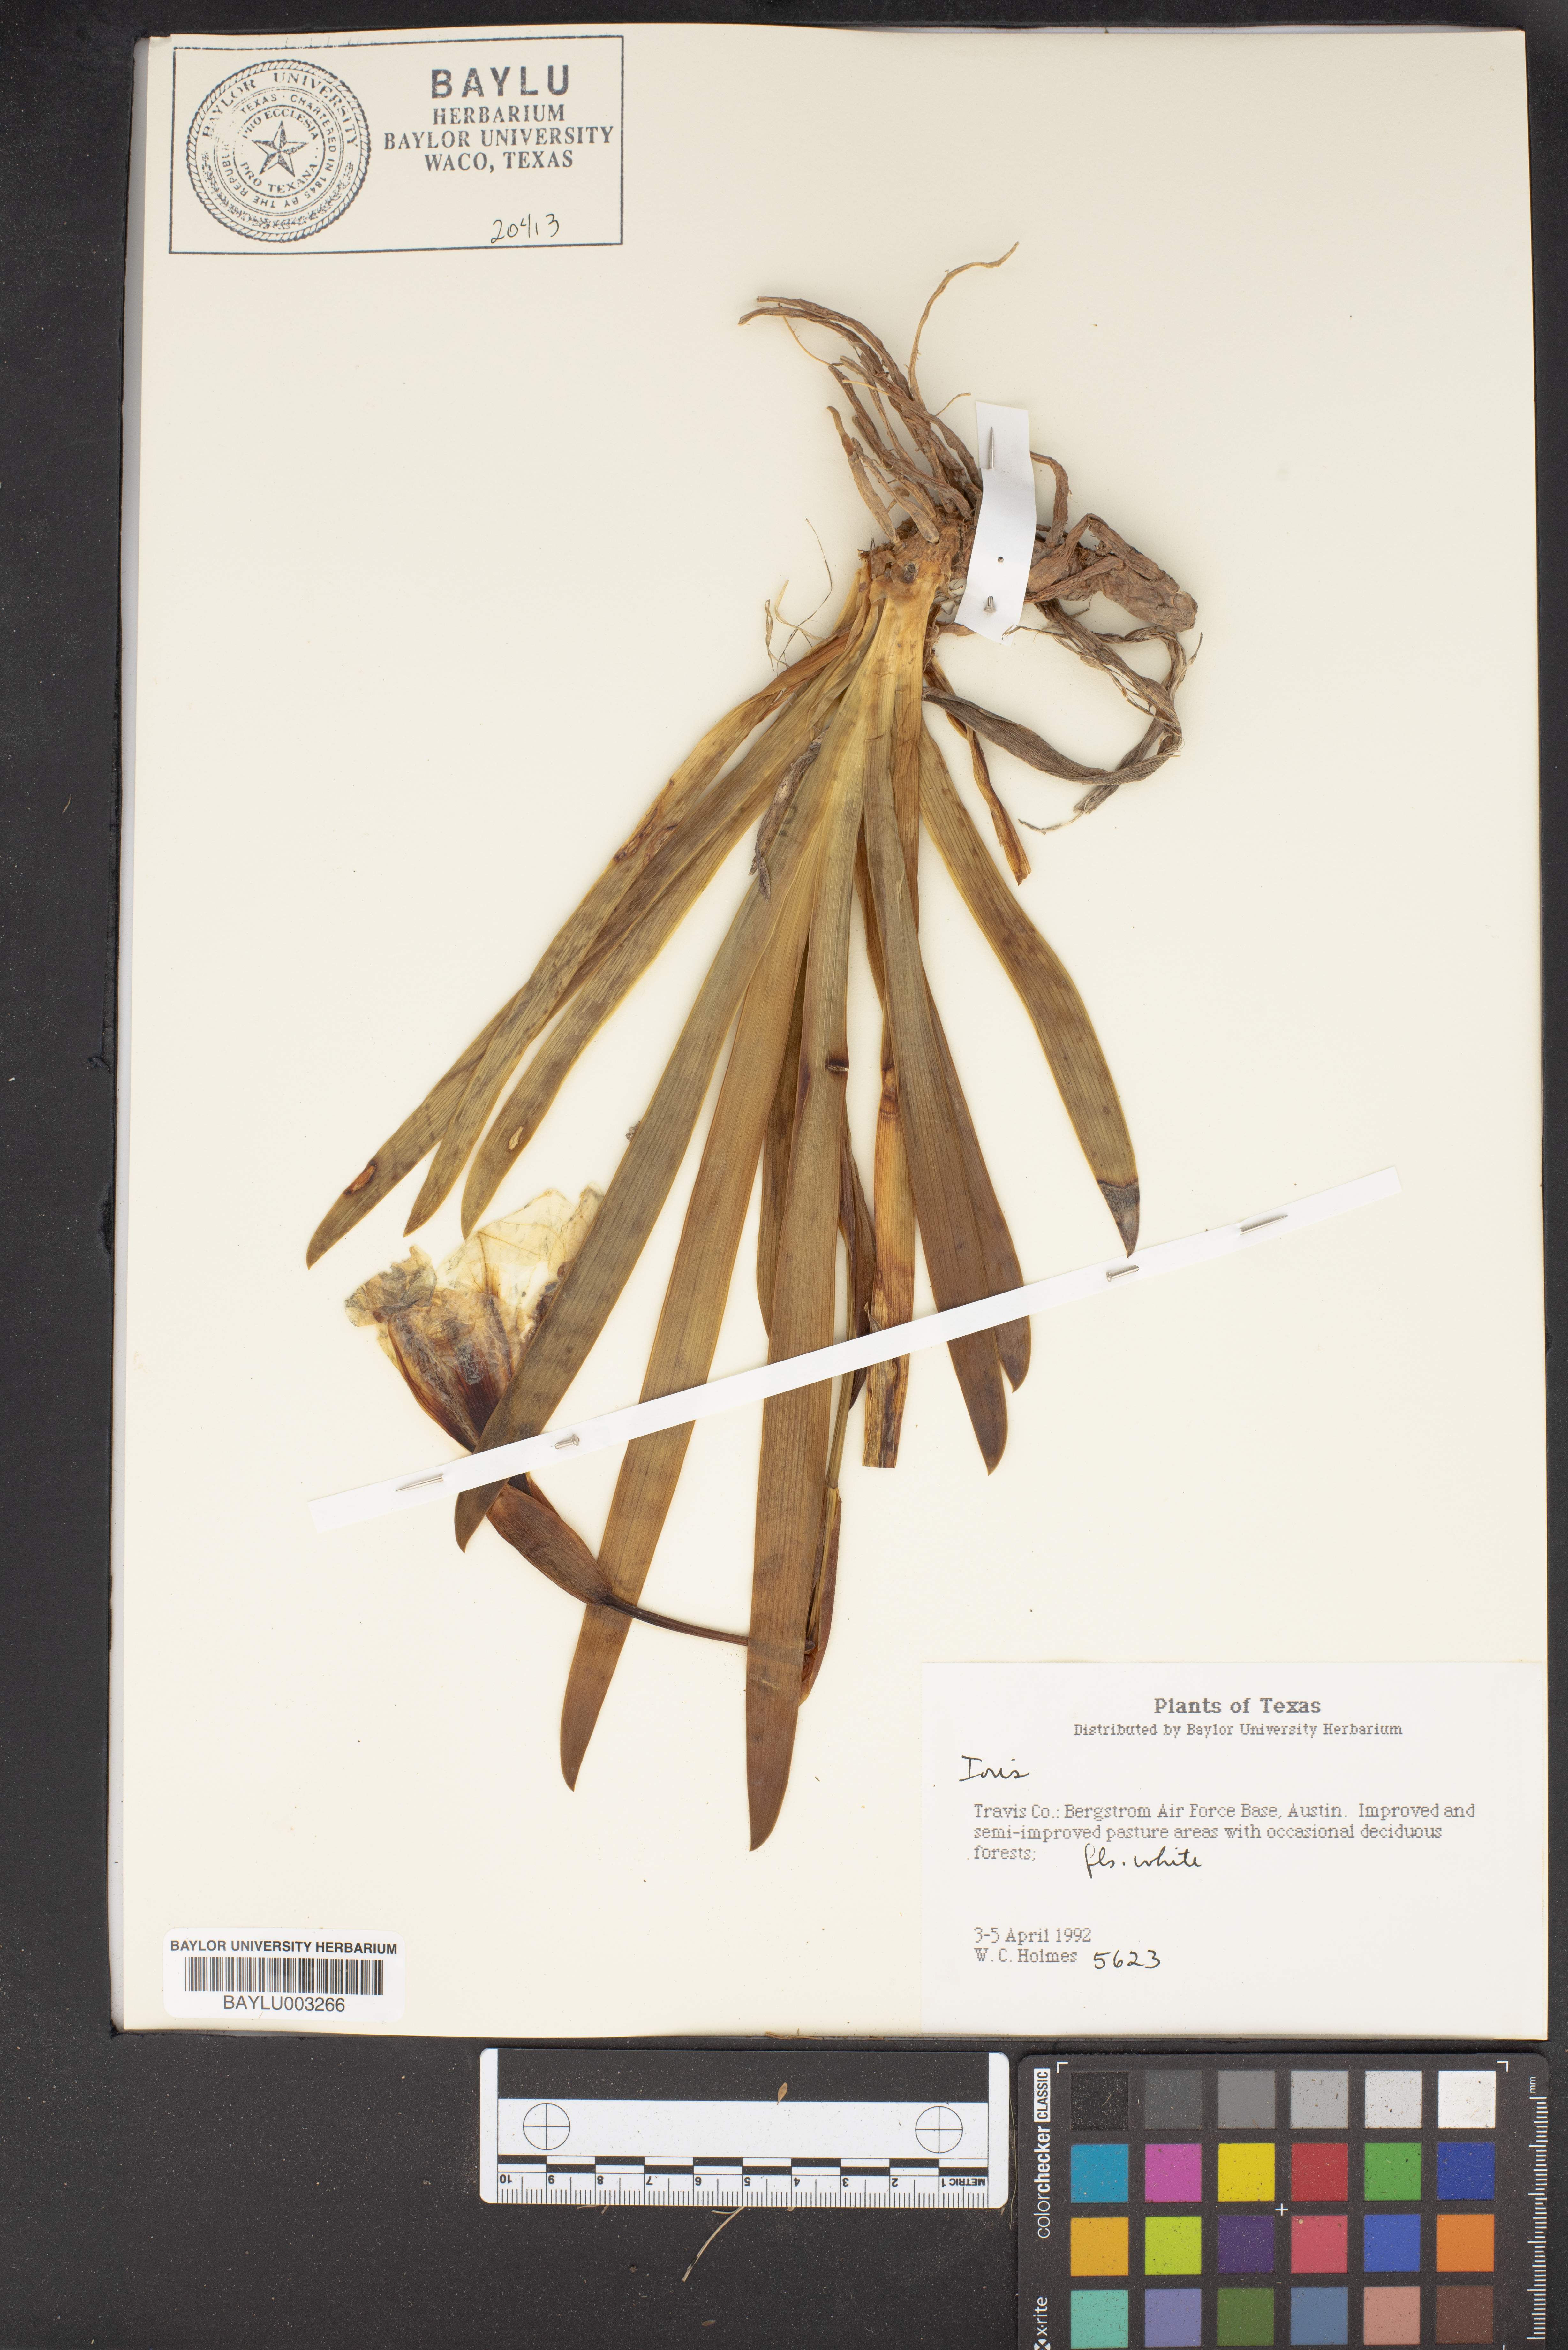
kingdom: Plantae
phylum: Tracheophyta
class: Liliopsida
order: Asparagales
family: Iridaceae
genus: Iris
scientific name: Iris pseudacorus
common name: Yellow flag
